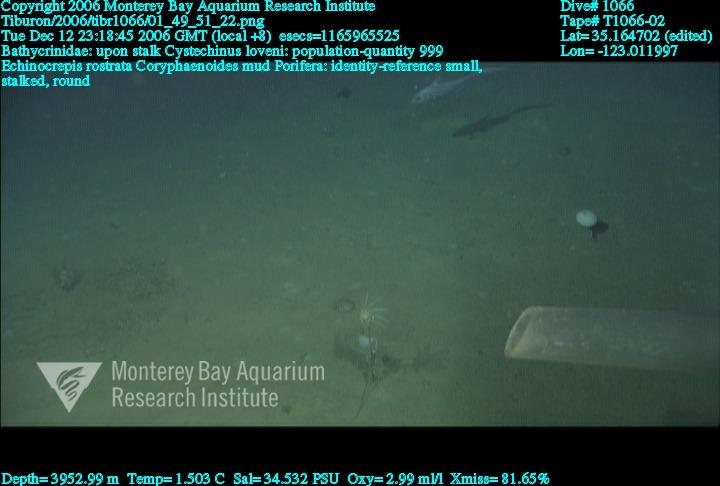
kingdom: Animalia
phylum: Porifera
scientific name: Porifera
